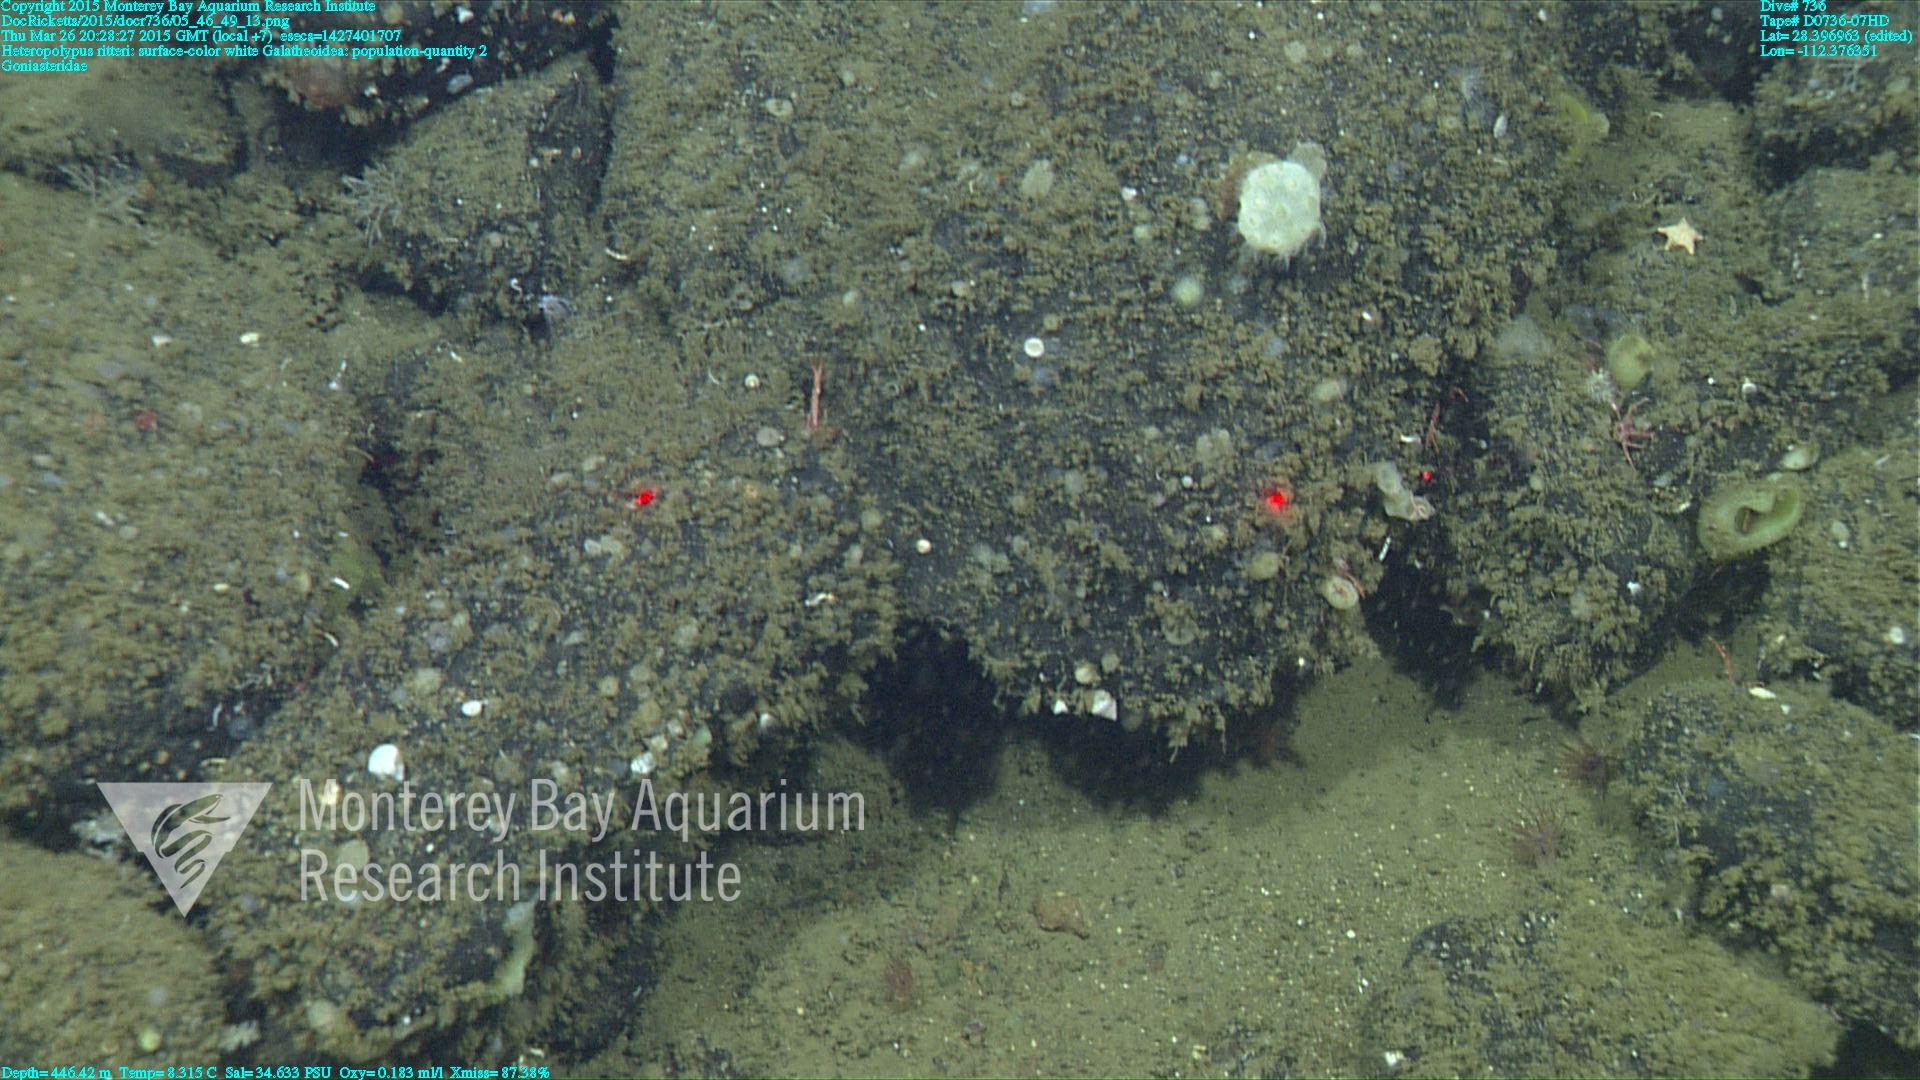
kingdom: Animalia
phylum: Cnidaria
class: Anthozoa
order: Scleralcyonacea
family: Coralliidae
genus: Heteropolypus
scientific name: Heteropolypus ritteri
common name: Ritter's soft coral
